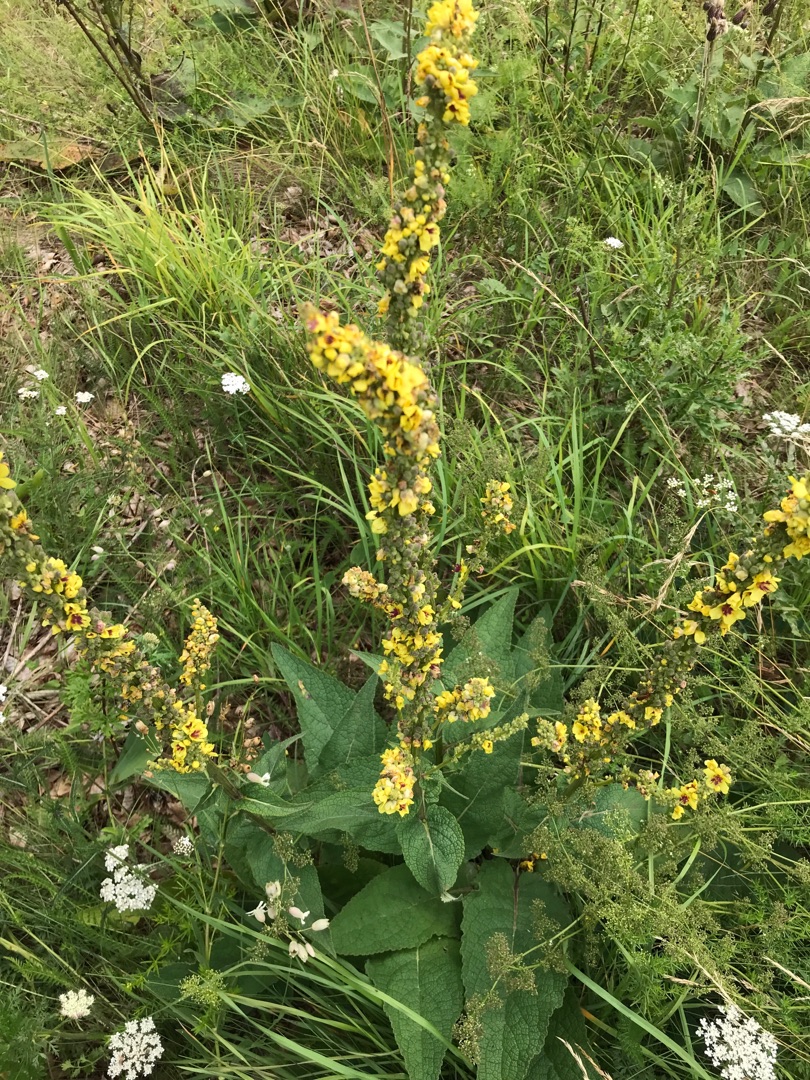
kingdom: Plantae
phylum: Tracheophyta
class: Magnoliopsida
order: Lamiales
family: Scrophulariaceae
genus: Verbascum
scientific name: Verbascum nigrum
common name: Mørk kongelys
